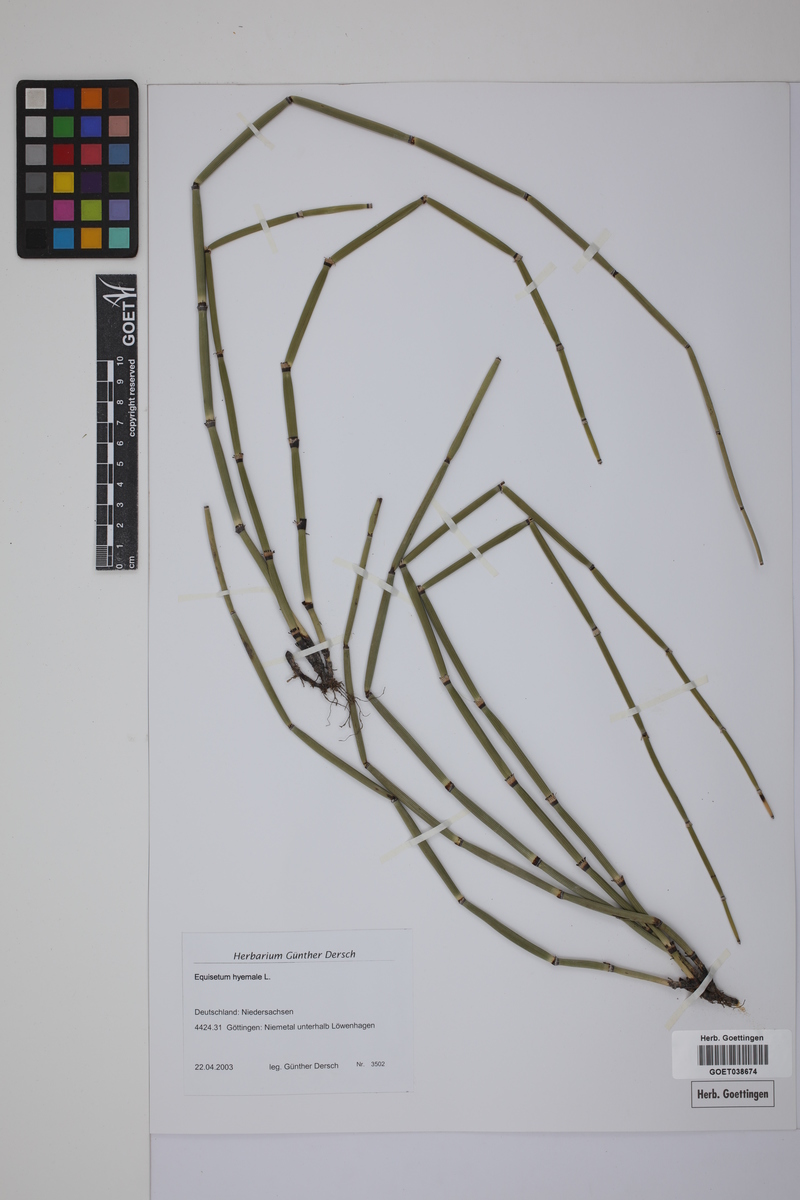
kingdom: Plantae
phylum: Tracheophyta
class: Polypodiopsida
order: Equisetales
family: Equisetaceae
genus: Equisetum
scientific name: Equisetum hyemale
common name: Rough horsetail
